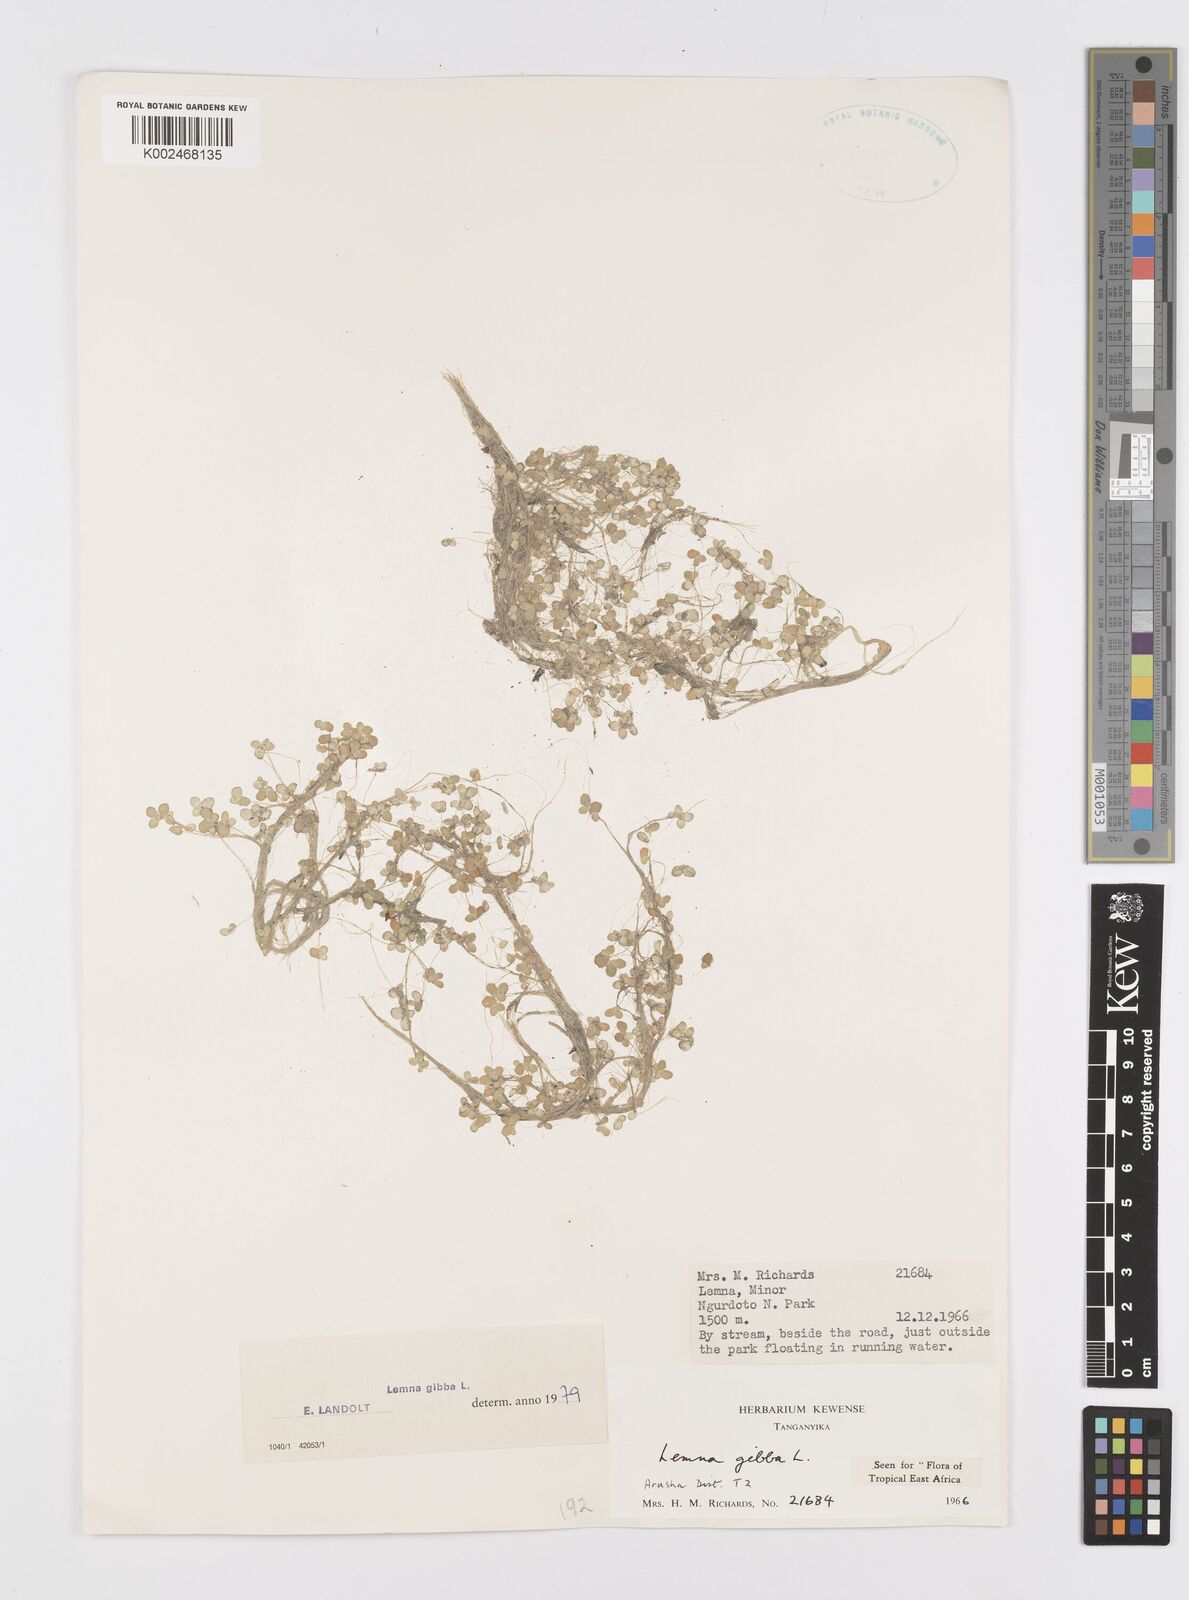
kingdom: Plantae
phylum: Tracheophyta
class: Liliopsida
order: Alismatales
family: Araceae
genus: Lemna
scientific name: Lemna gibba
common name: Fat duckweed
